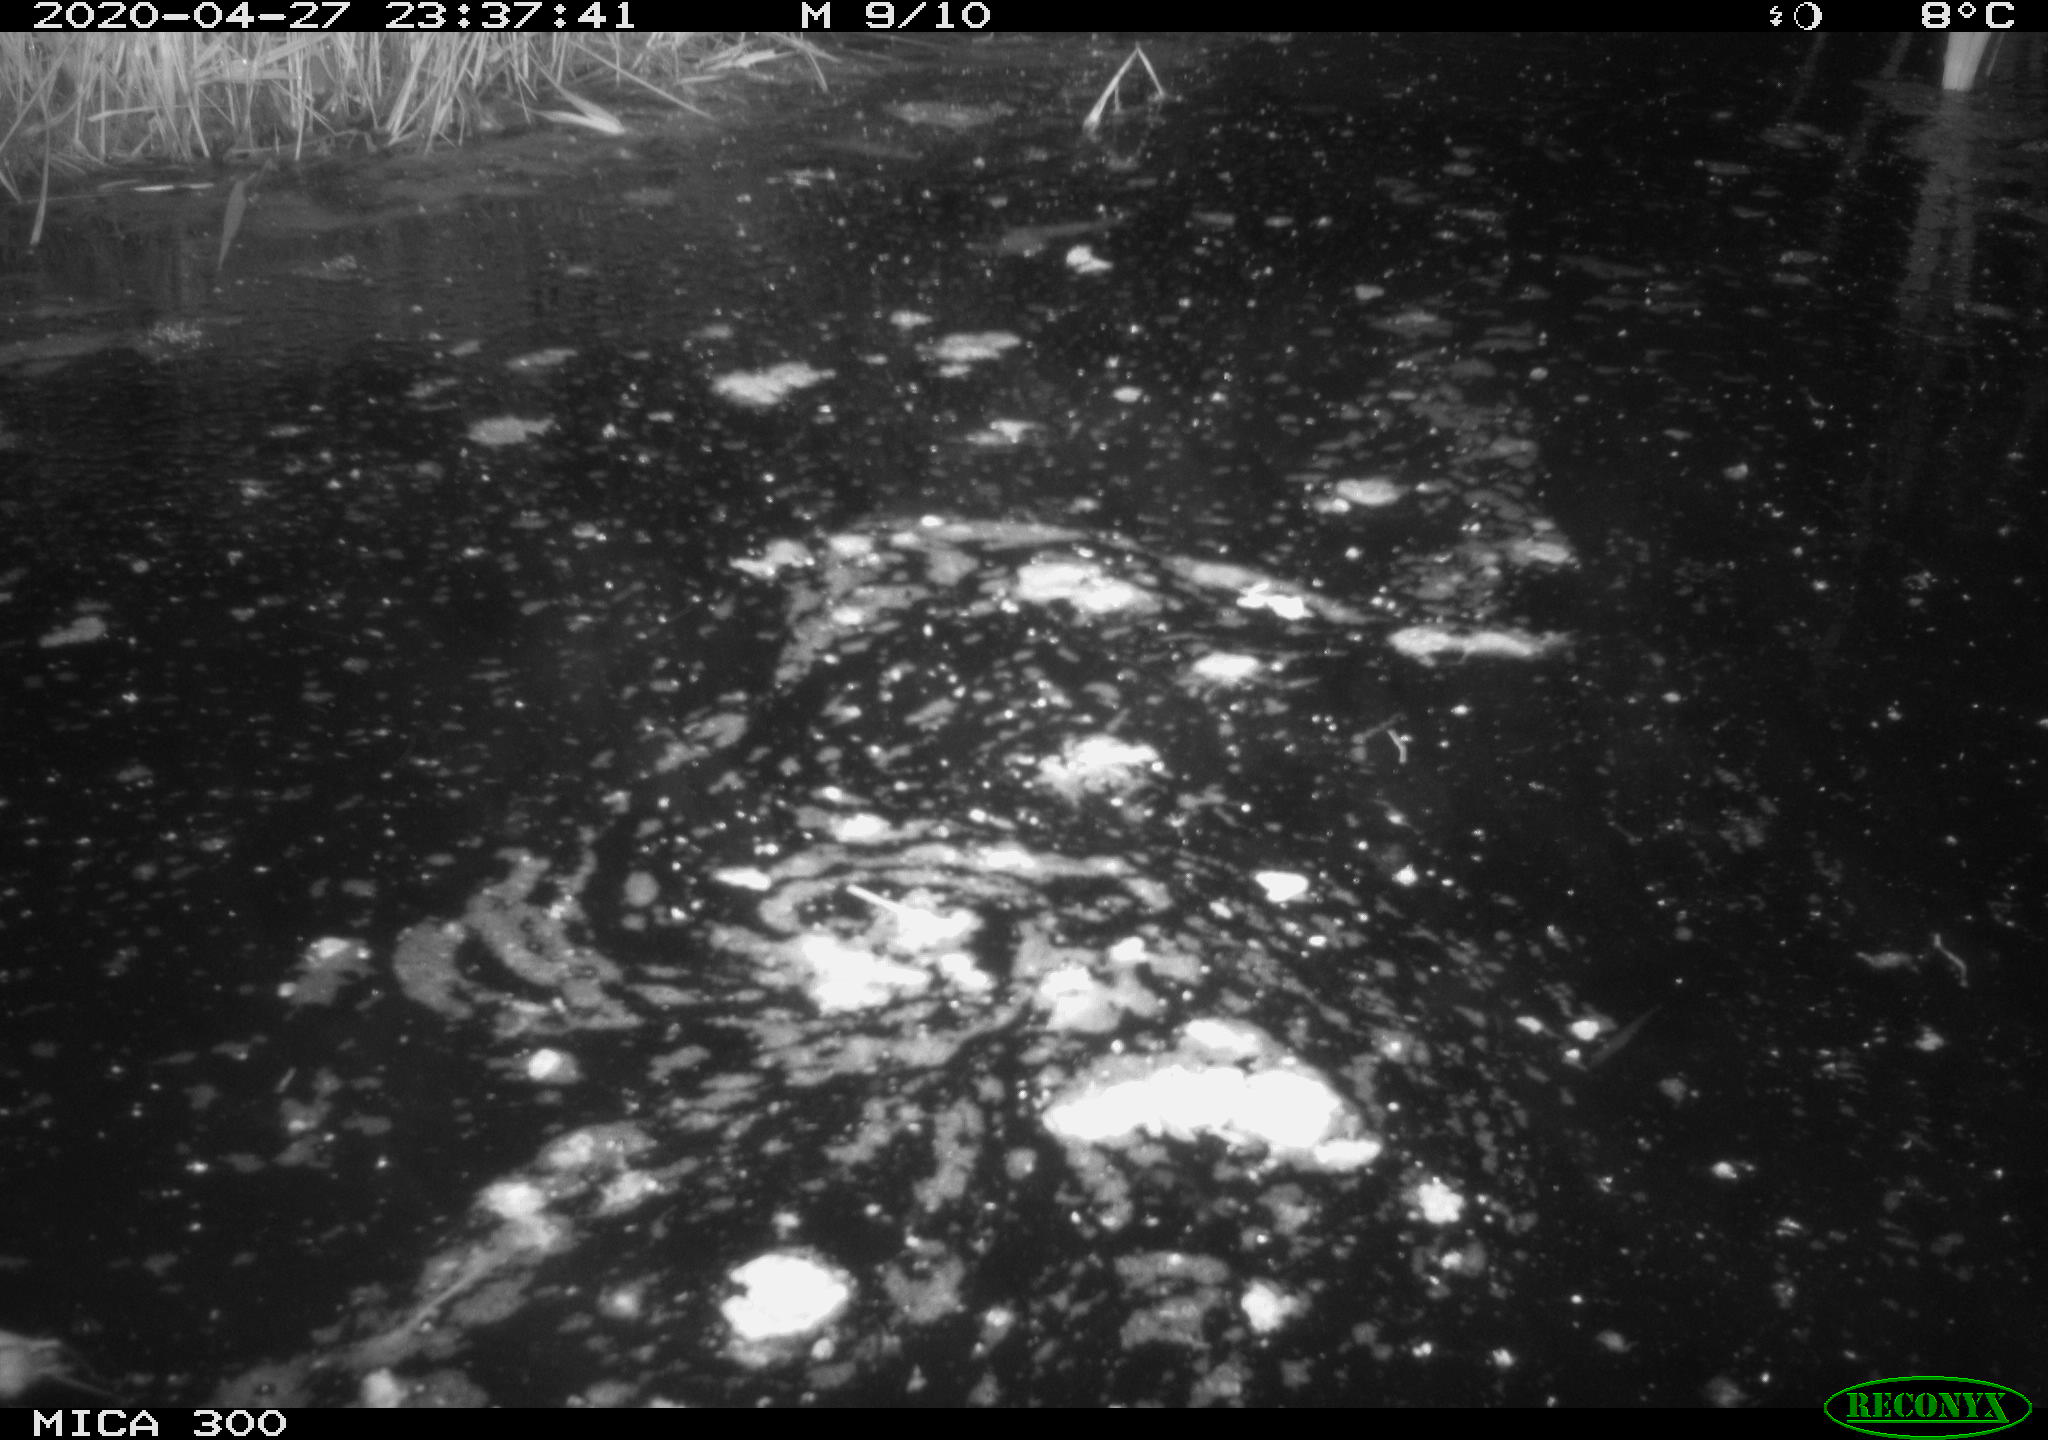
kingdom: Animalia
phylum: Chordata
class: Mammalia
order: Rodentia
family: Myocastoridae
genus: Myocastor
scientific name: Myocastor coypus
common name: Coypu
